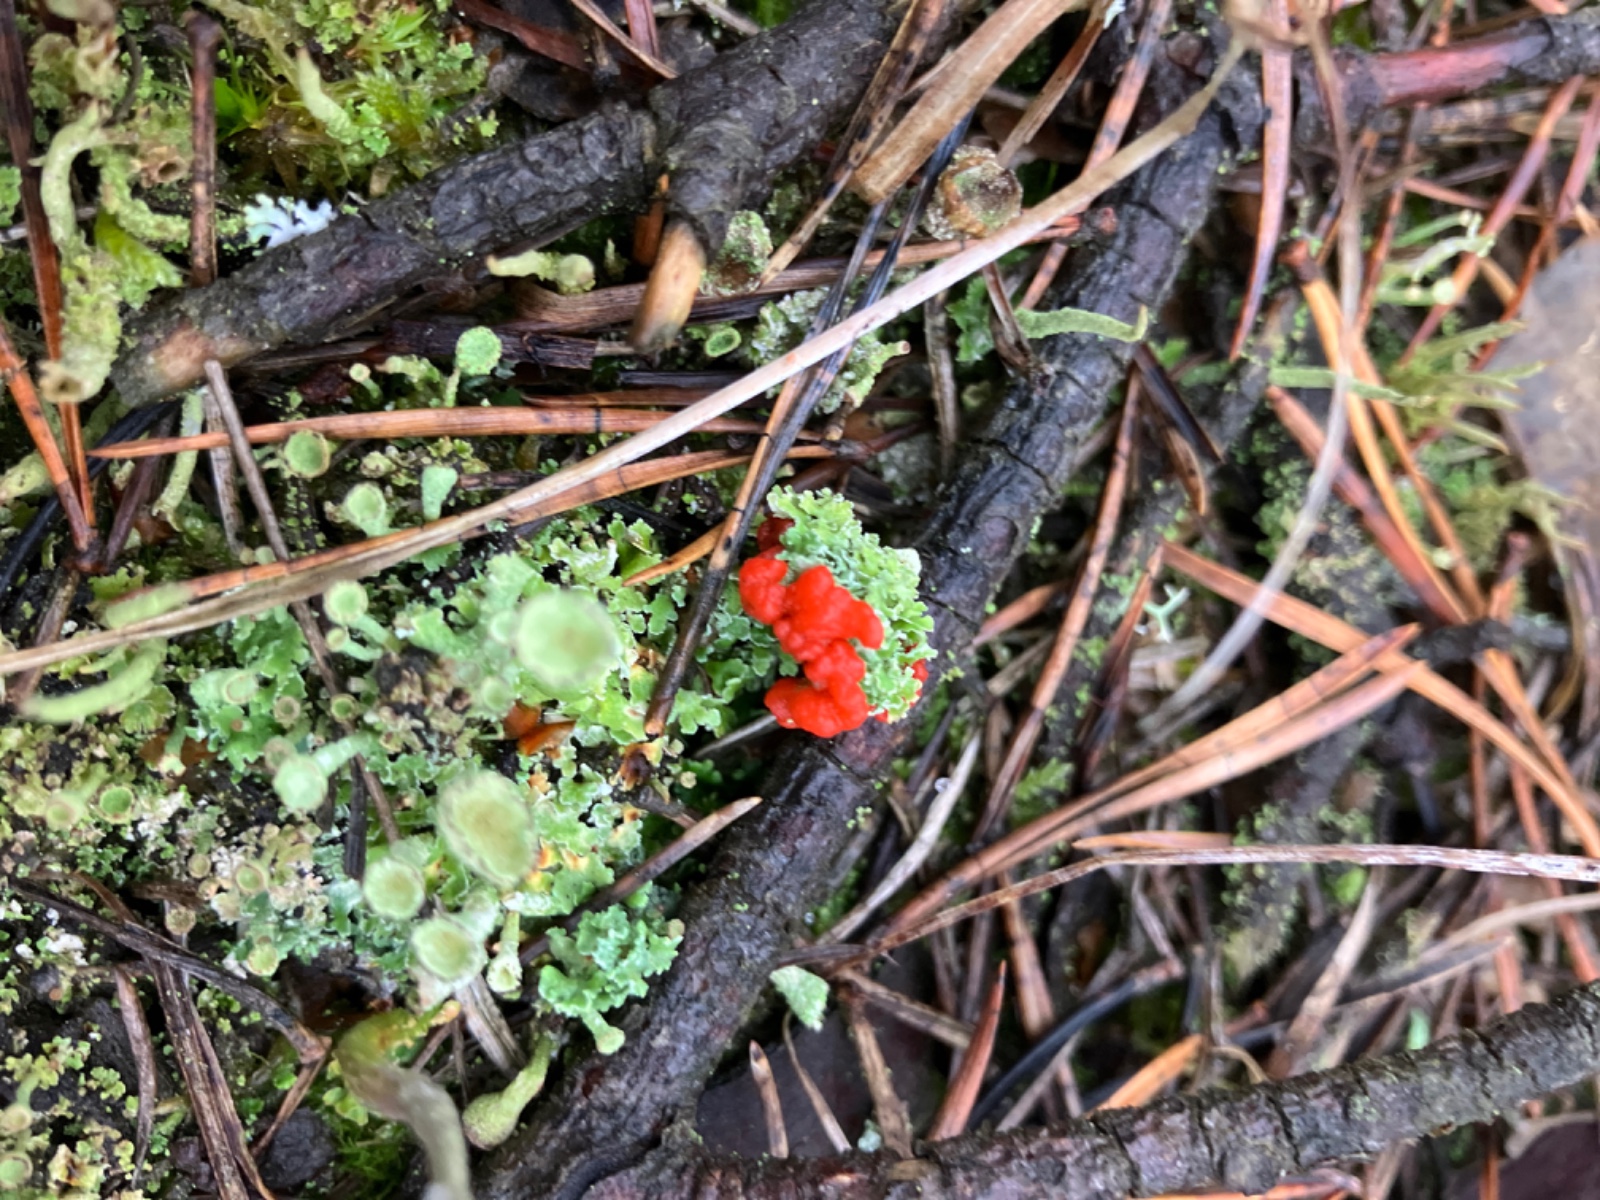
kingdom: Fungi
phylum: Ascomycota
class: Lecanoromycetes
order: Lecanorales
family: Cladoniaceae
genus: Cladonia
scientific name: Cladonia diversa
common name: rød bægerlav
